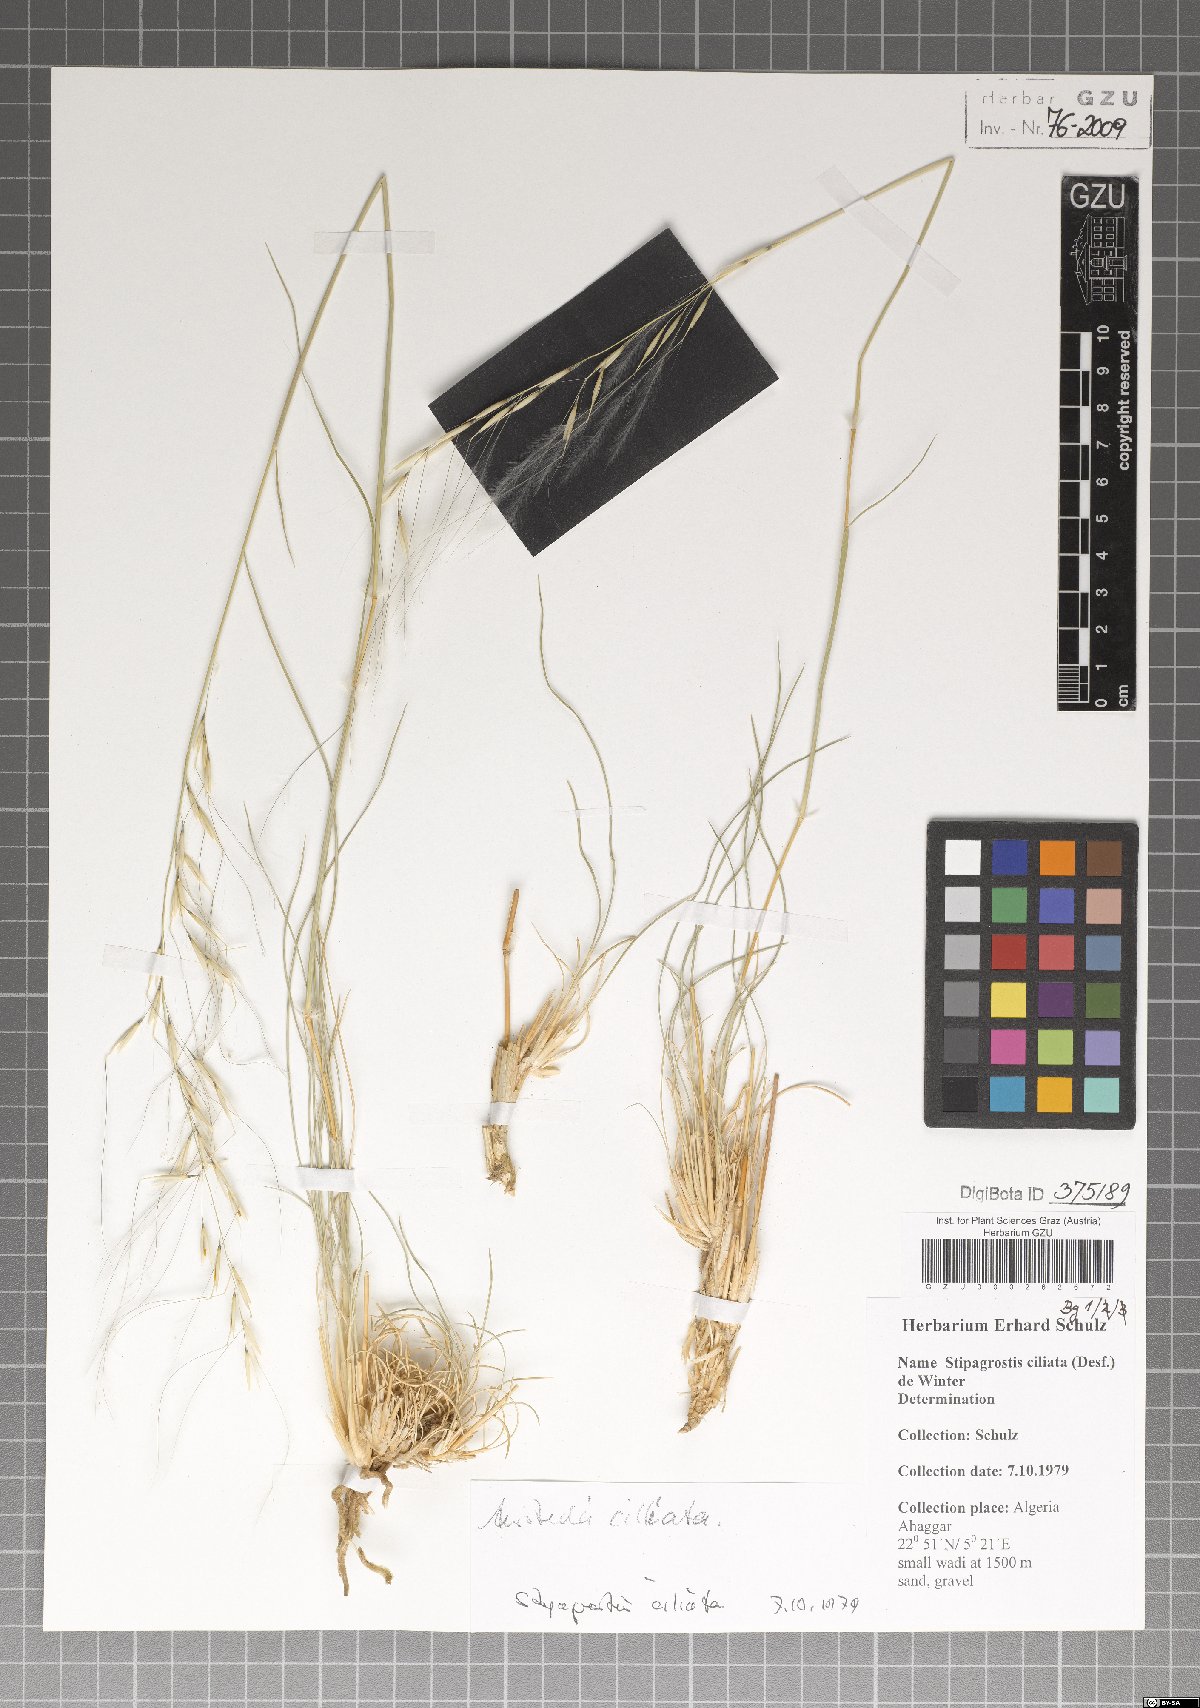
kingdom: Plantae
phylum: Tracheophyta
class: Liliopsida
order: Poales
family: Poaceae
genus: Stipagrostis
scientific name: Stipagrostis ciliata
